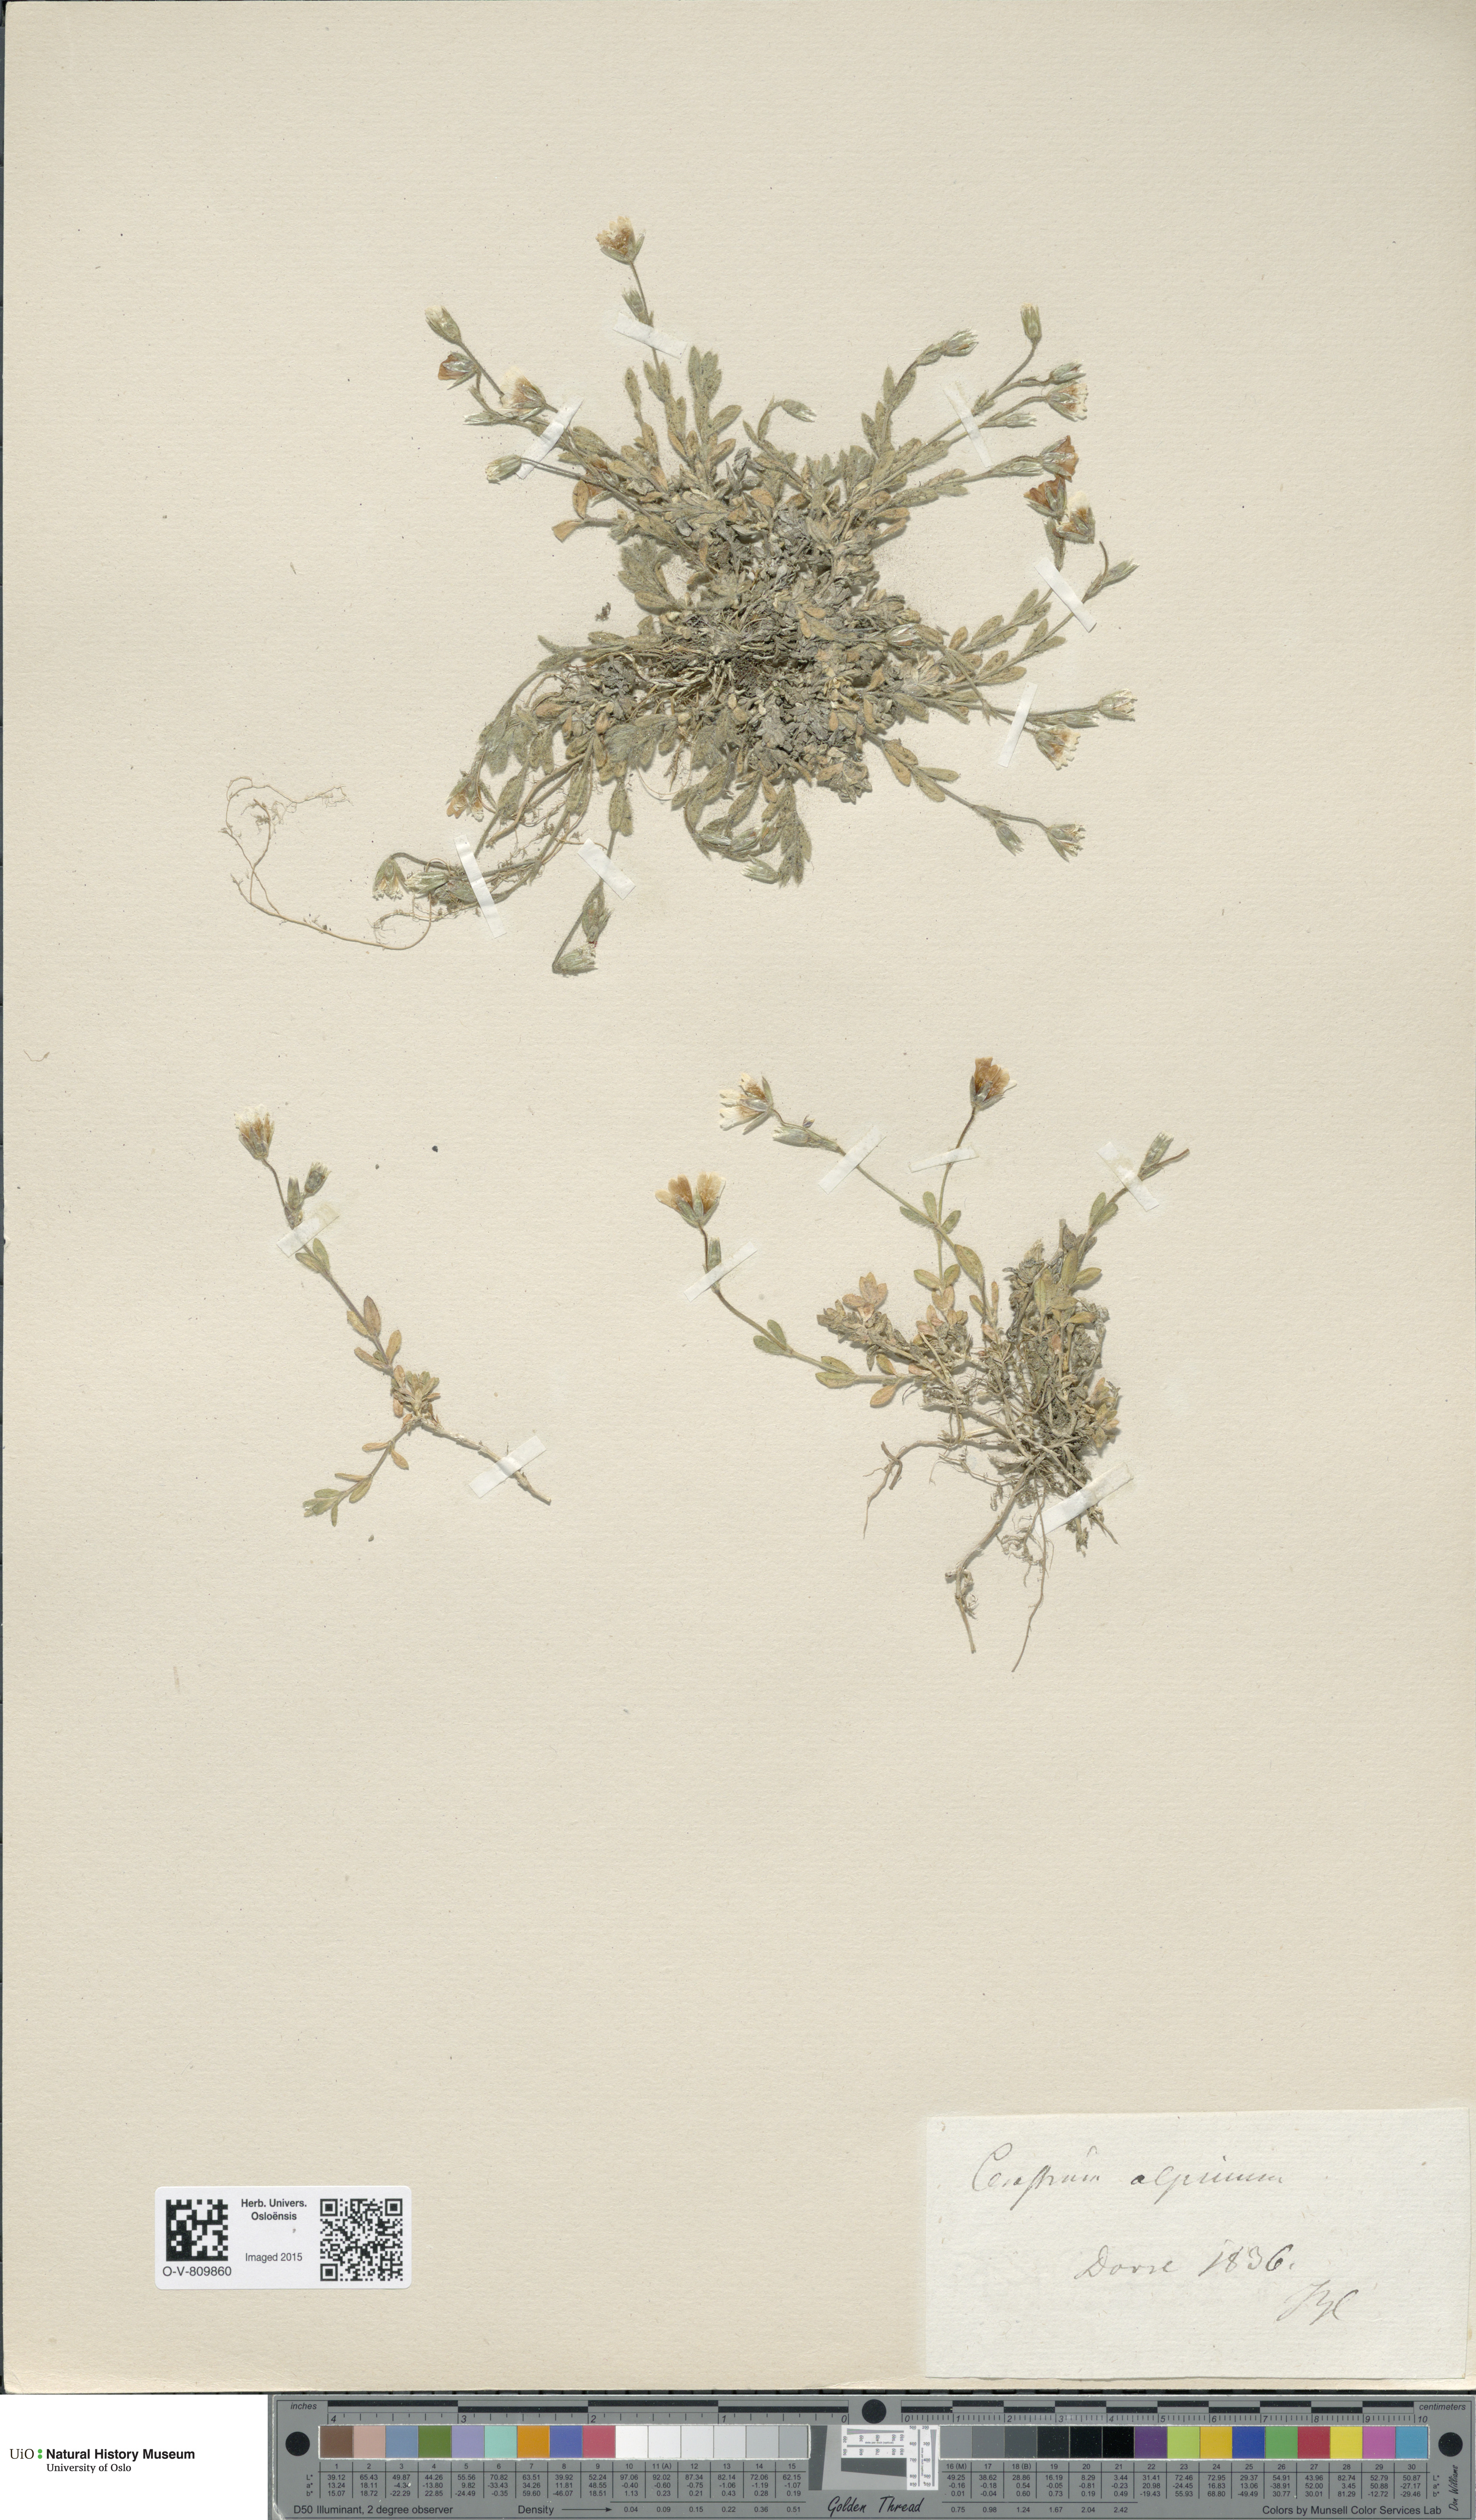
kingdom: Plantae
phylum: Tracheophyta
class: Magnoliopsida
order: Caryophyllales
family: Caryophyllaceae
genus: Cerastium
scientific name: Cerastium alpinum
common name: Alpine mouse-ear
